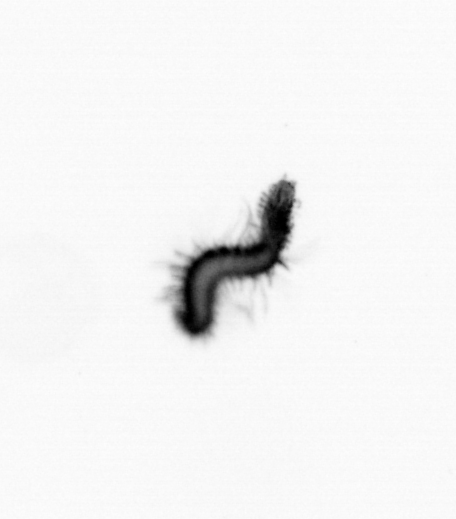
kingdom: Animalia
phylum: Annelida
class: Polychaeta
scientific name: Polychaeta
